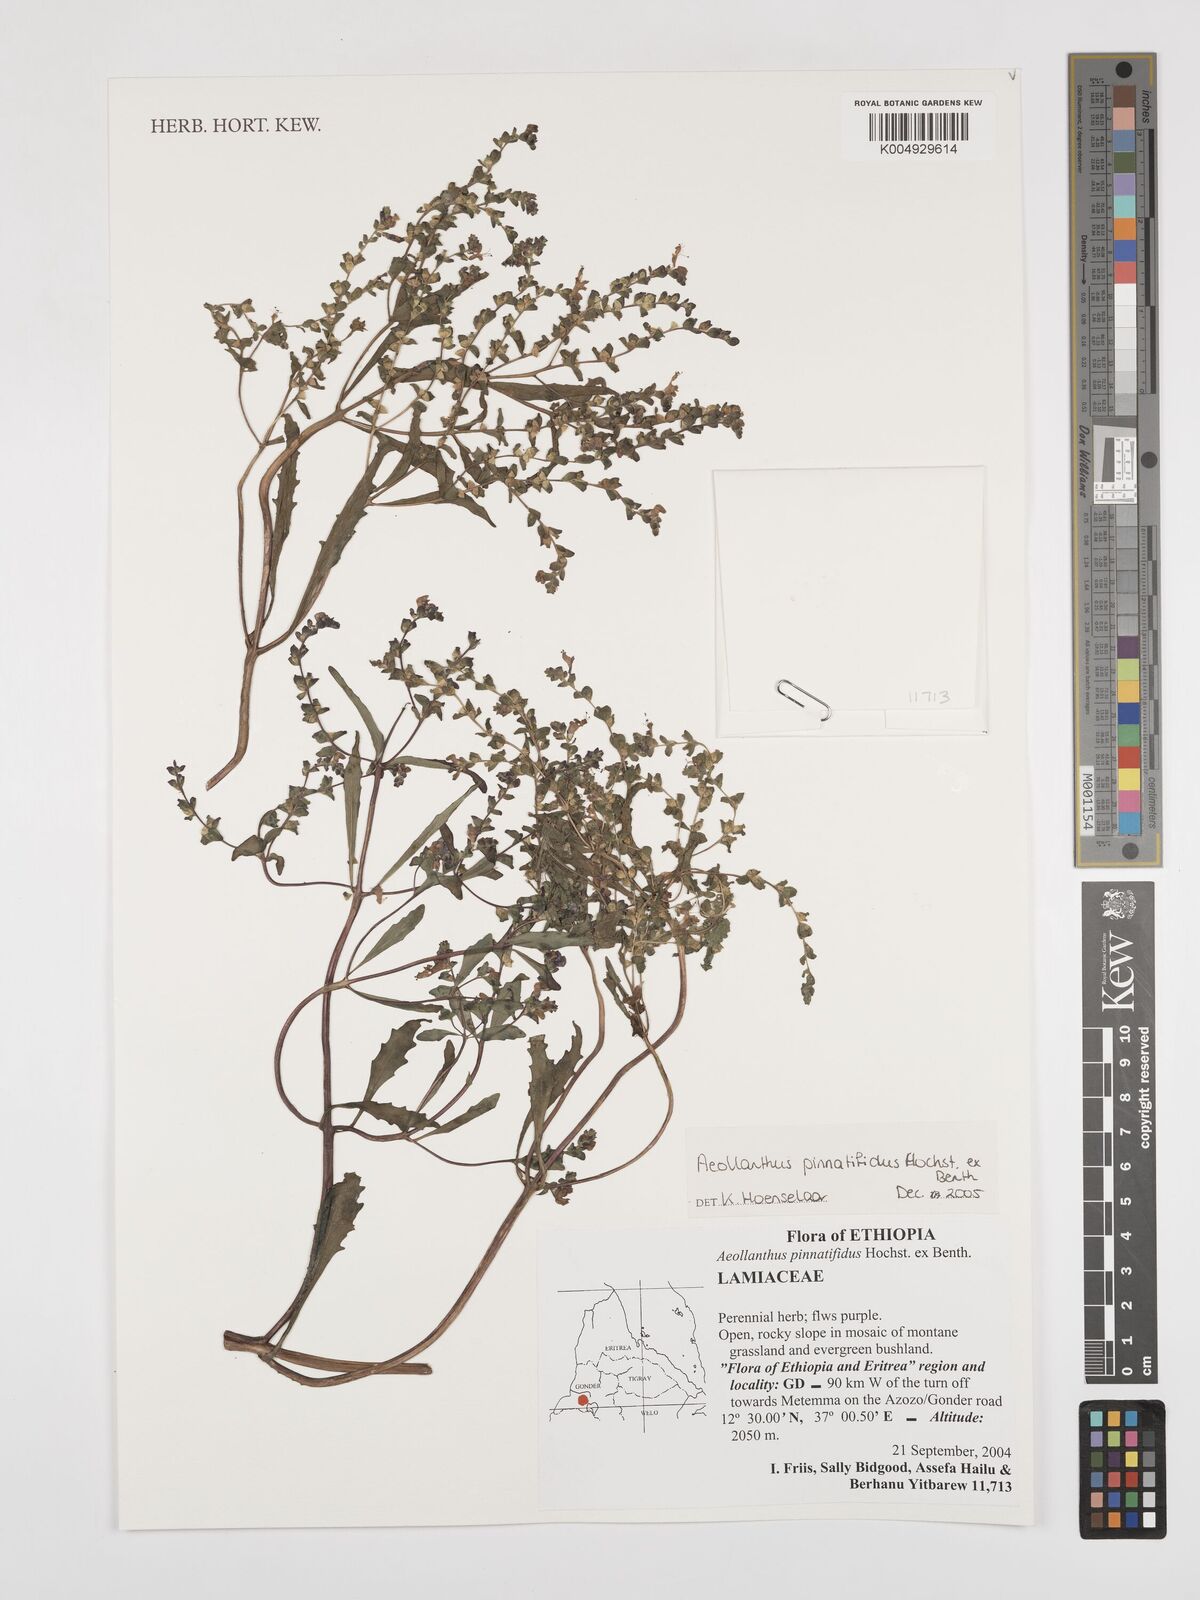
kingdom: Plantae
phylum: Tracheophyta
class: Magnoliopsida
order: Lamiales
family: Lamiaceae
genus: Aeollanthus
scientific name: Aeollanthus pinnatifidus
